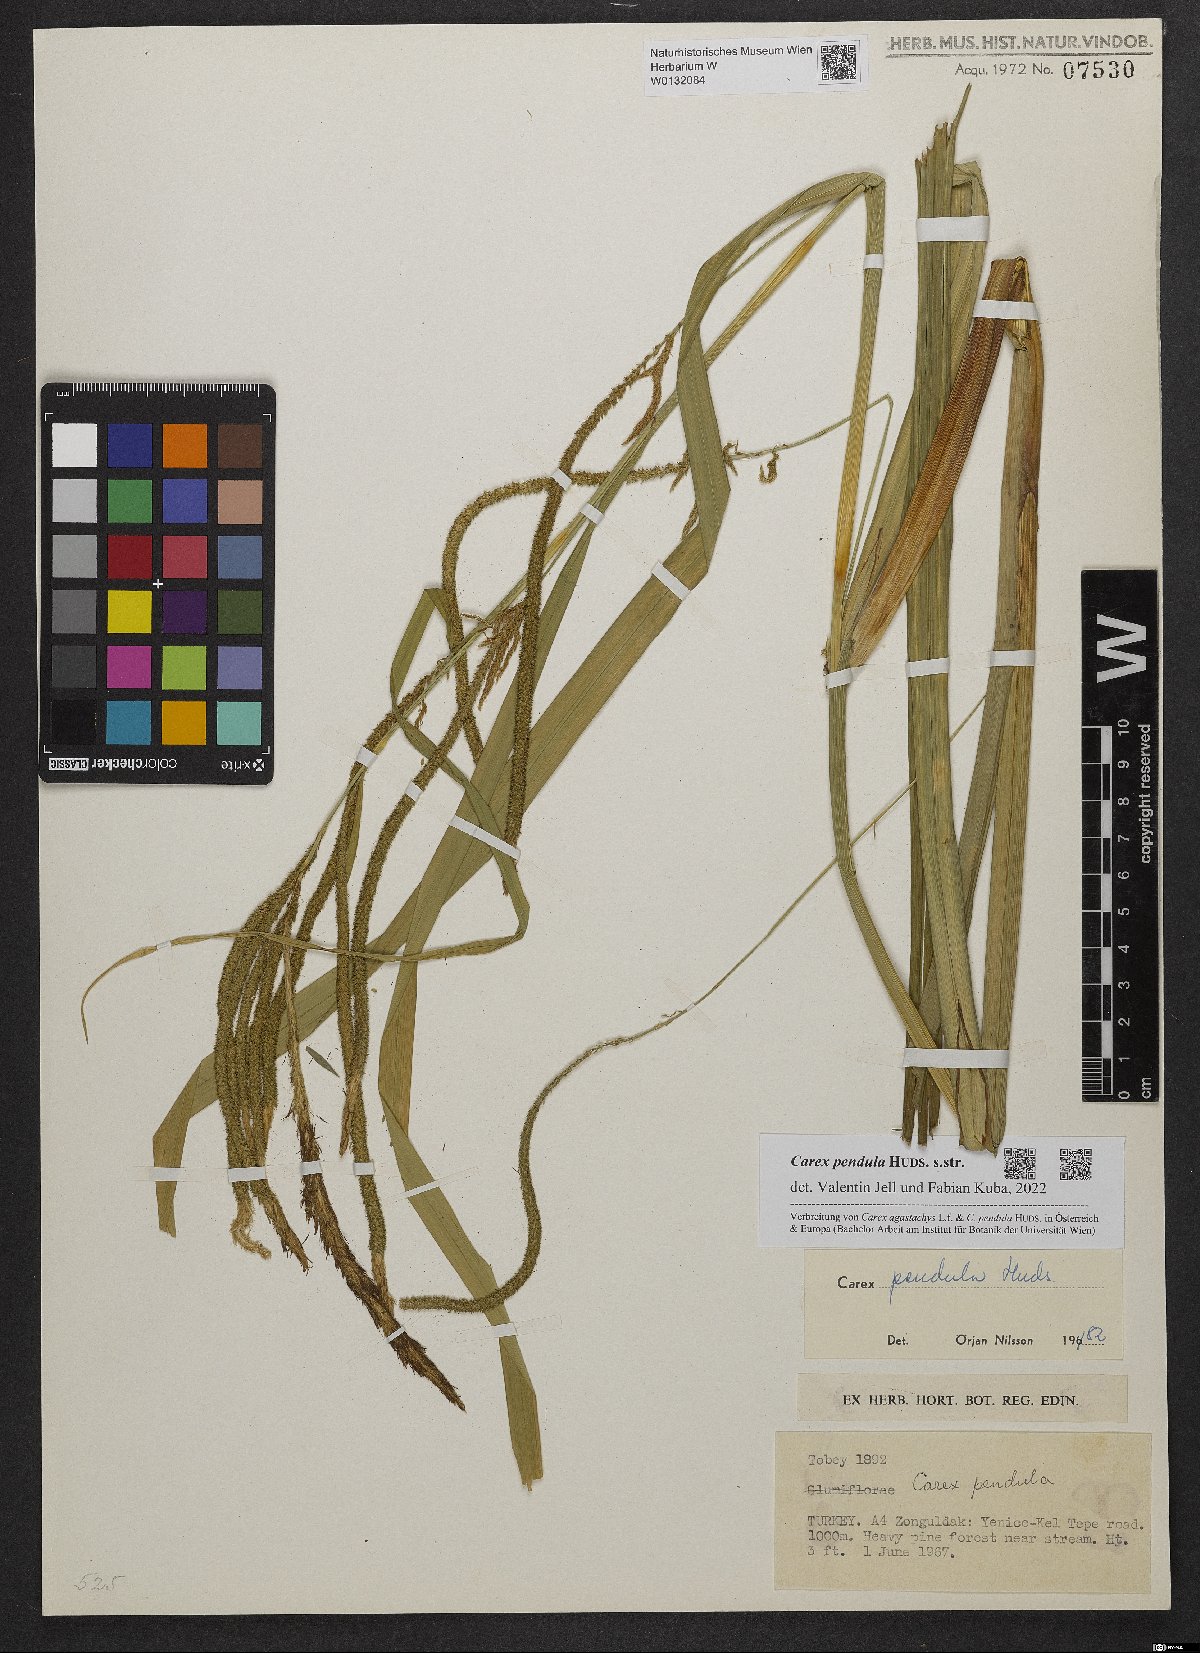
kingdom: Plantae
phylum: Tracheophyta
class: Liliopsida
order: Poales
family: Cyperaceae
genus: Carex
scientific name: Carex pendula
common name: Pendulous sedge
